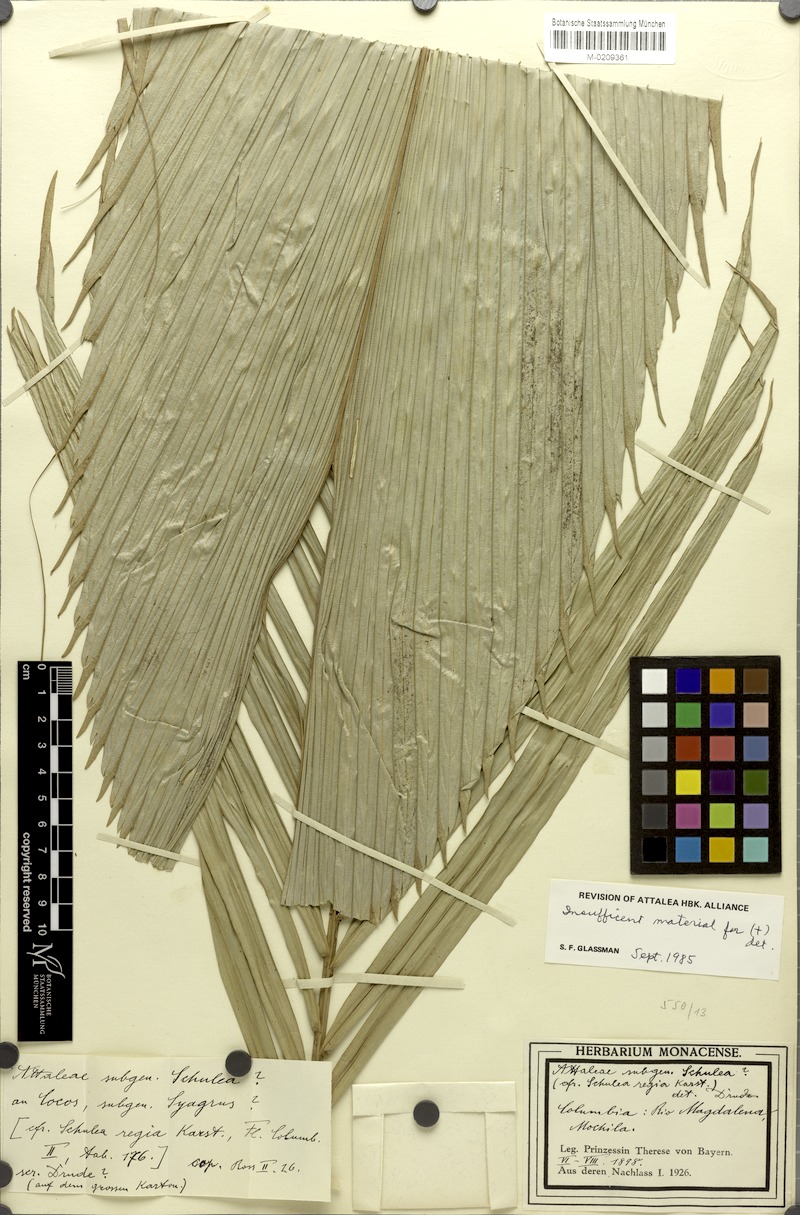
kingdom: Plantae
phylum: Tracheophyta
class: Liliopsida
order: Arecales
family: Arecaceae
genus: Attalea
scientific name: Attalea funifera
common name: Piassava palm
